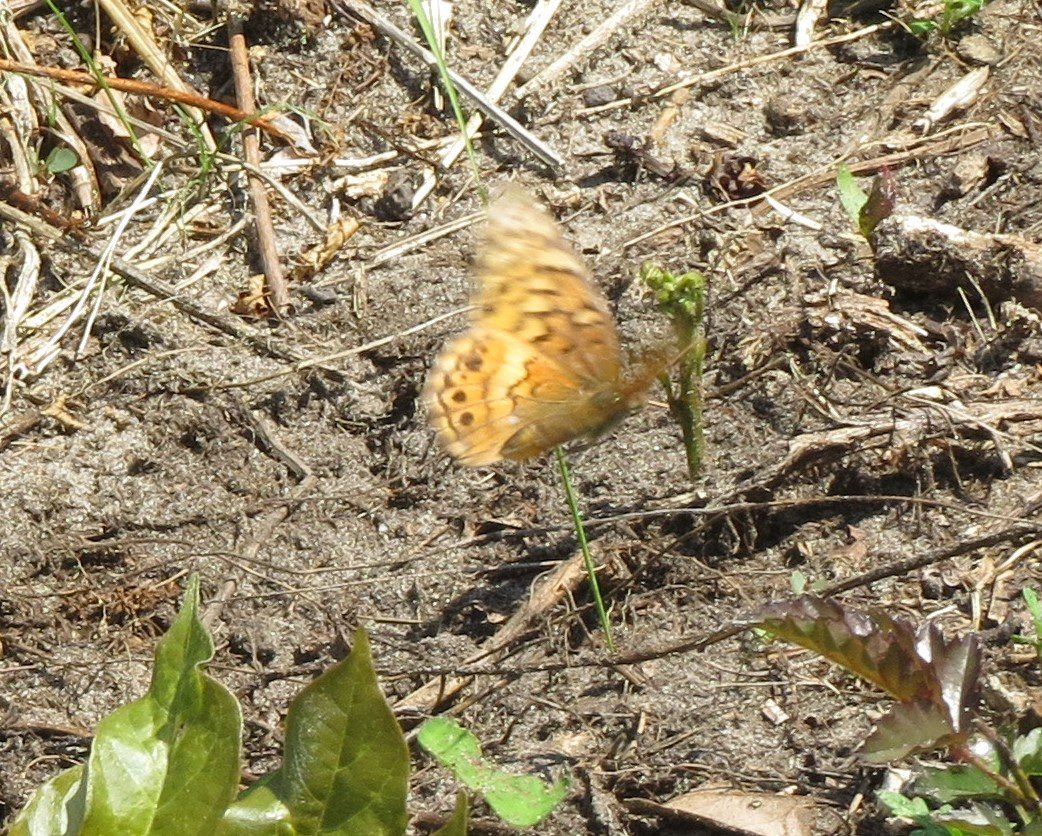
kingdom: Animalia
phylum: Arthropoda
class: Insecta
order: Lepidoptera
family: Nymphalidae
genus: Euptoieta
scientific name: Euptoieta claudia
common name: Variegated Fritillary
